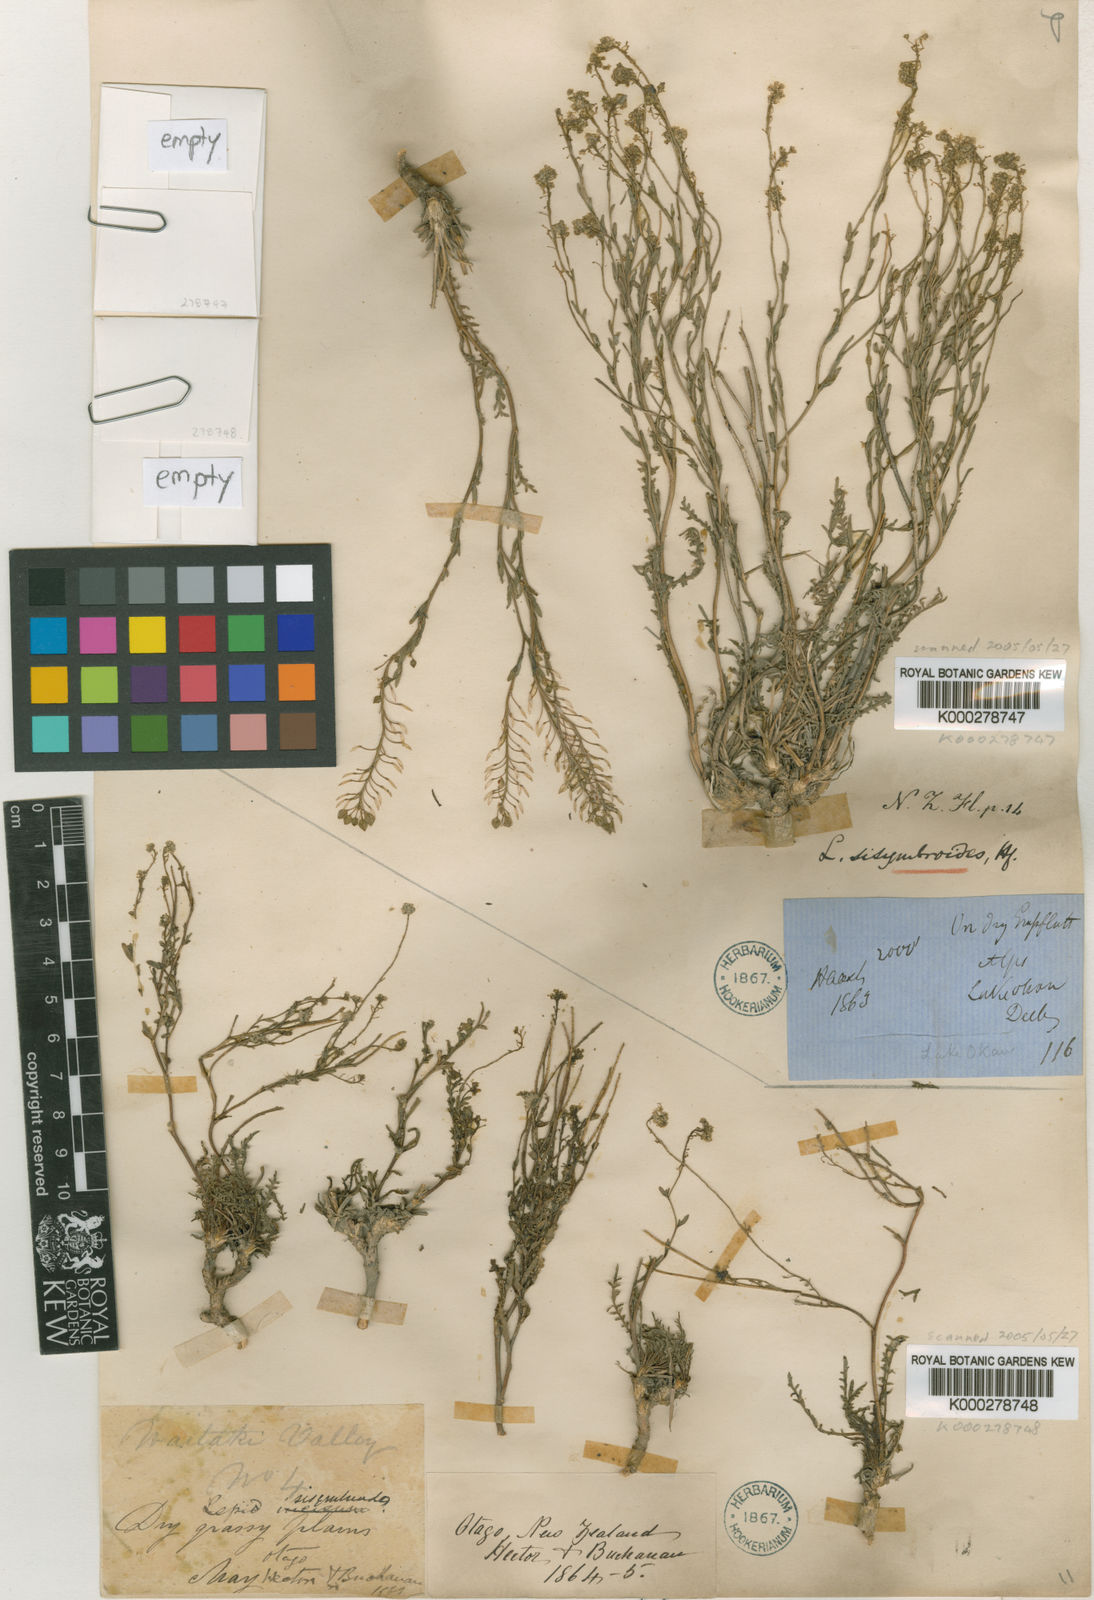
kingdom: Plantae
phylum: Tracheophyta
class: Magnoliopsida
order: Brassicales
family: Brassicaceae
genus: Lepidium
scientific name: Lepidium sisymbrioides
